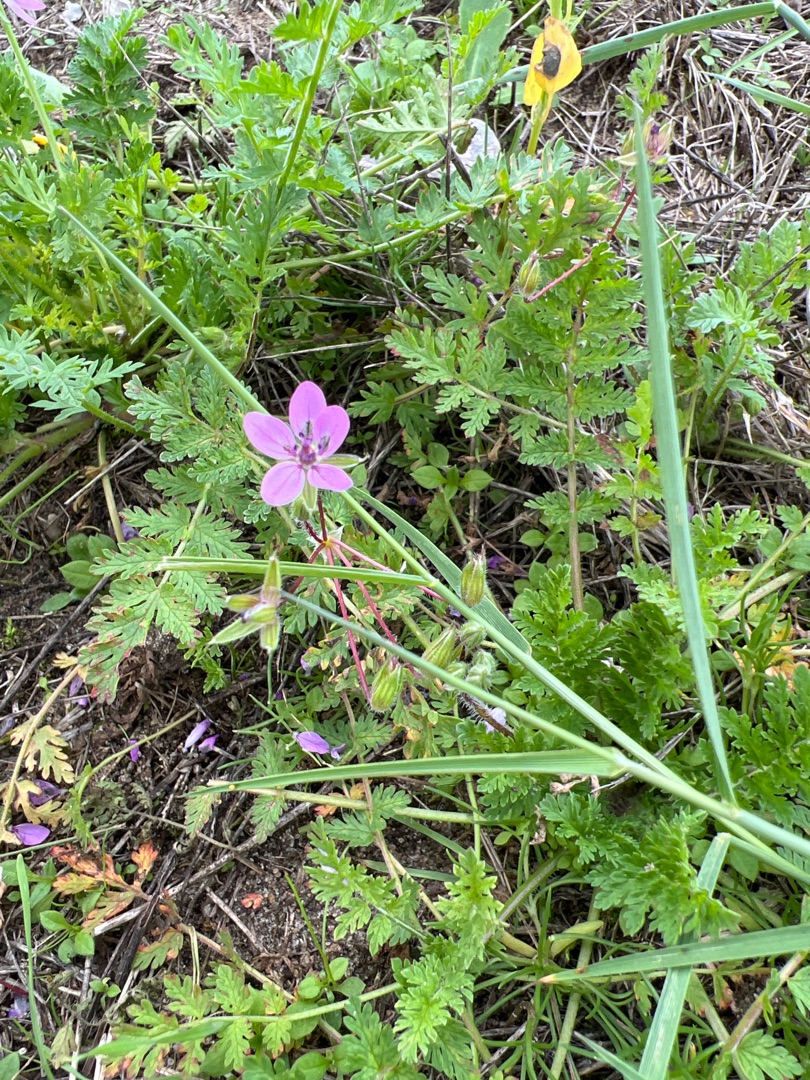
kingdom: Plantae
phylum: Tracheophyta
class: Magnoliopsida
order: Geraniales
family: Geraniaceae
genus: Erodium
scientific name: Erodium cicutarium
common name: Hejrenæb
